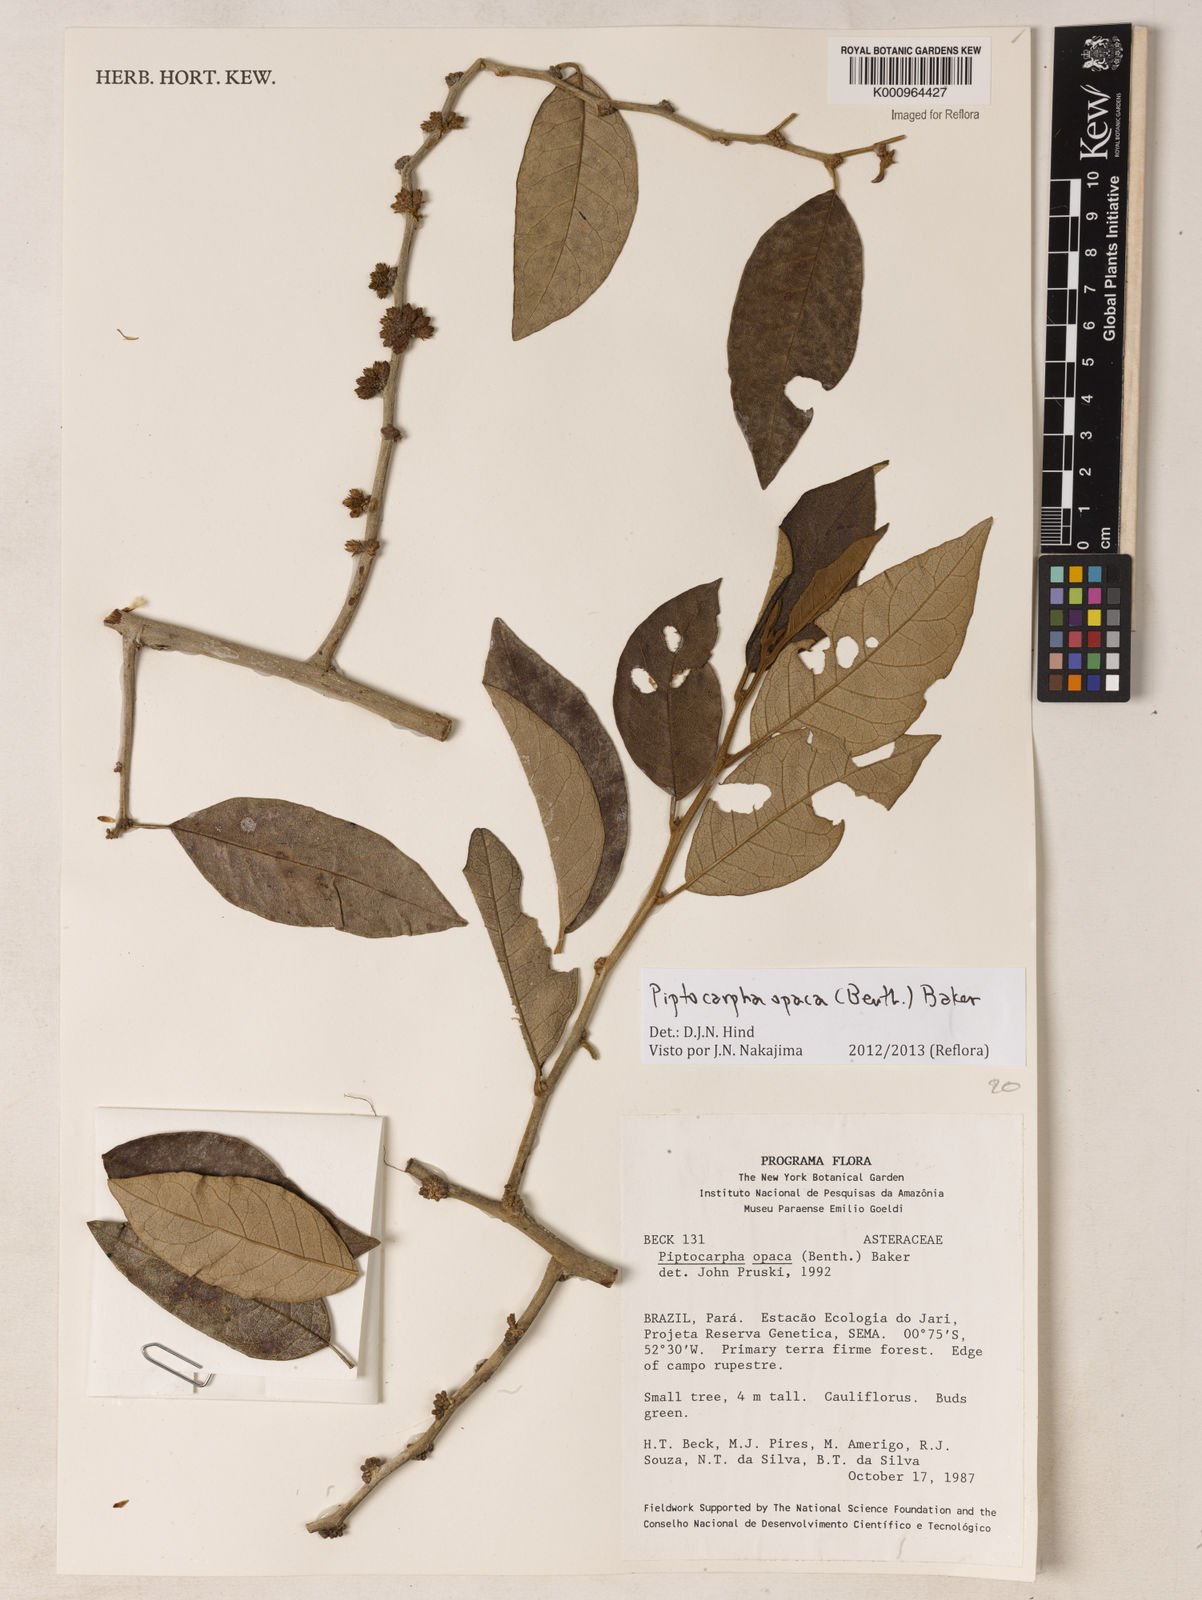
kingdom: Plantae
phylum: Tracheophyta
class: Magnoliopsida
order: Asterales
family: Asteraceae
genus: Piptocarpha
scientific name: Piptocarpha opaca
